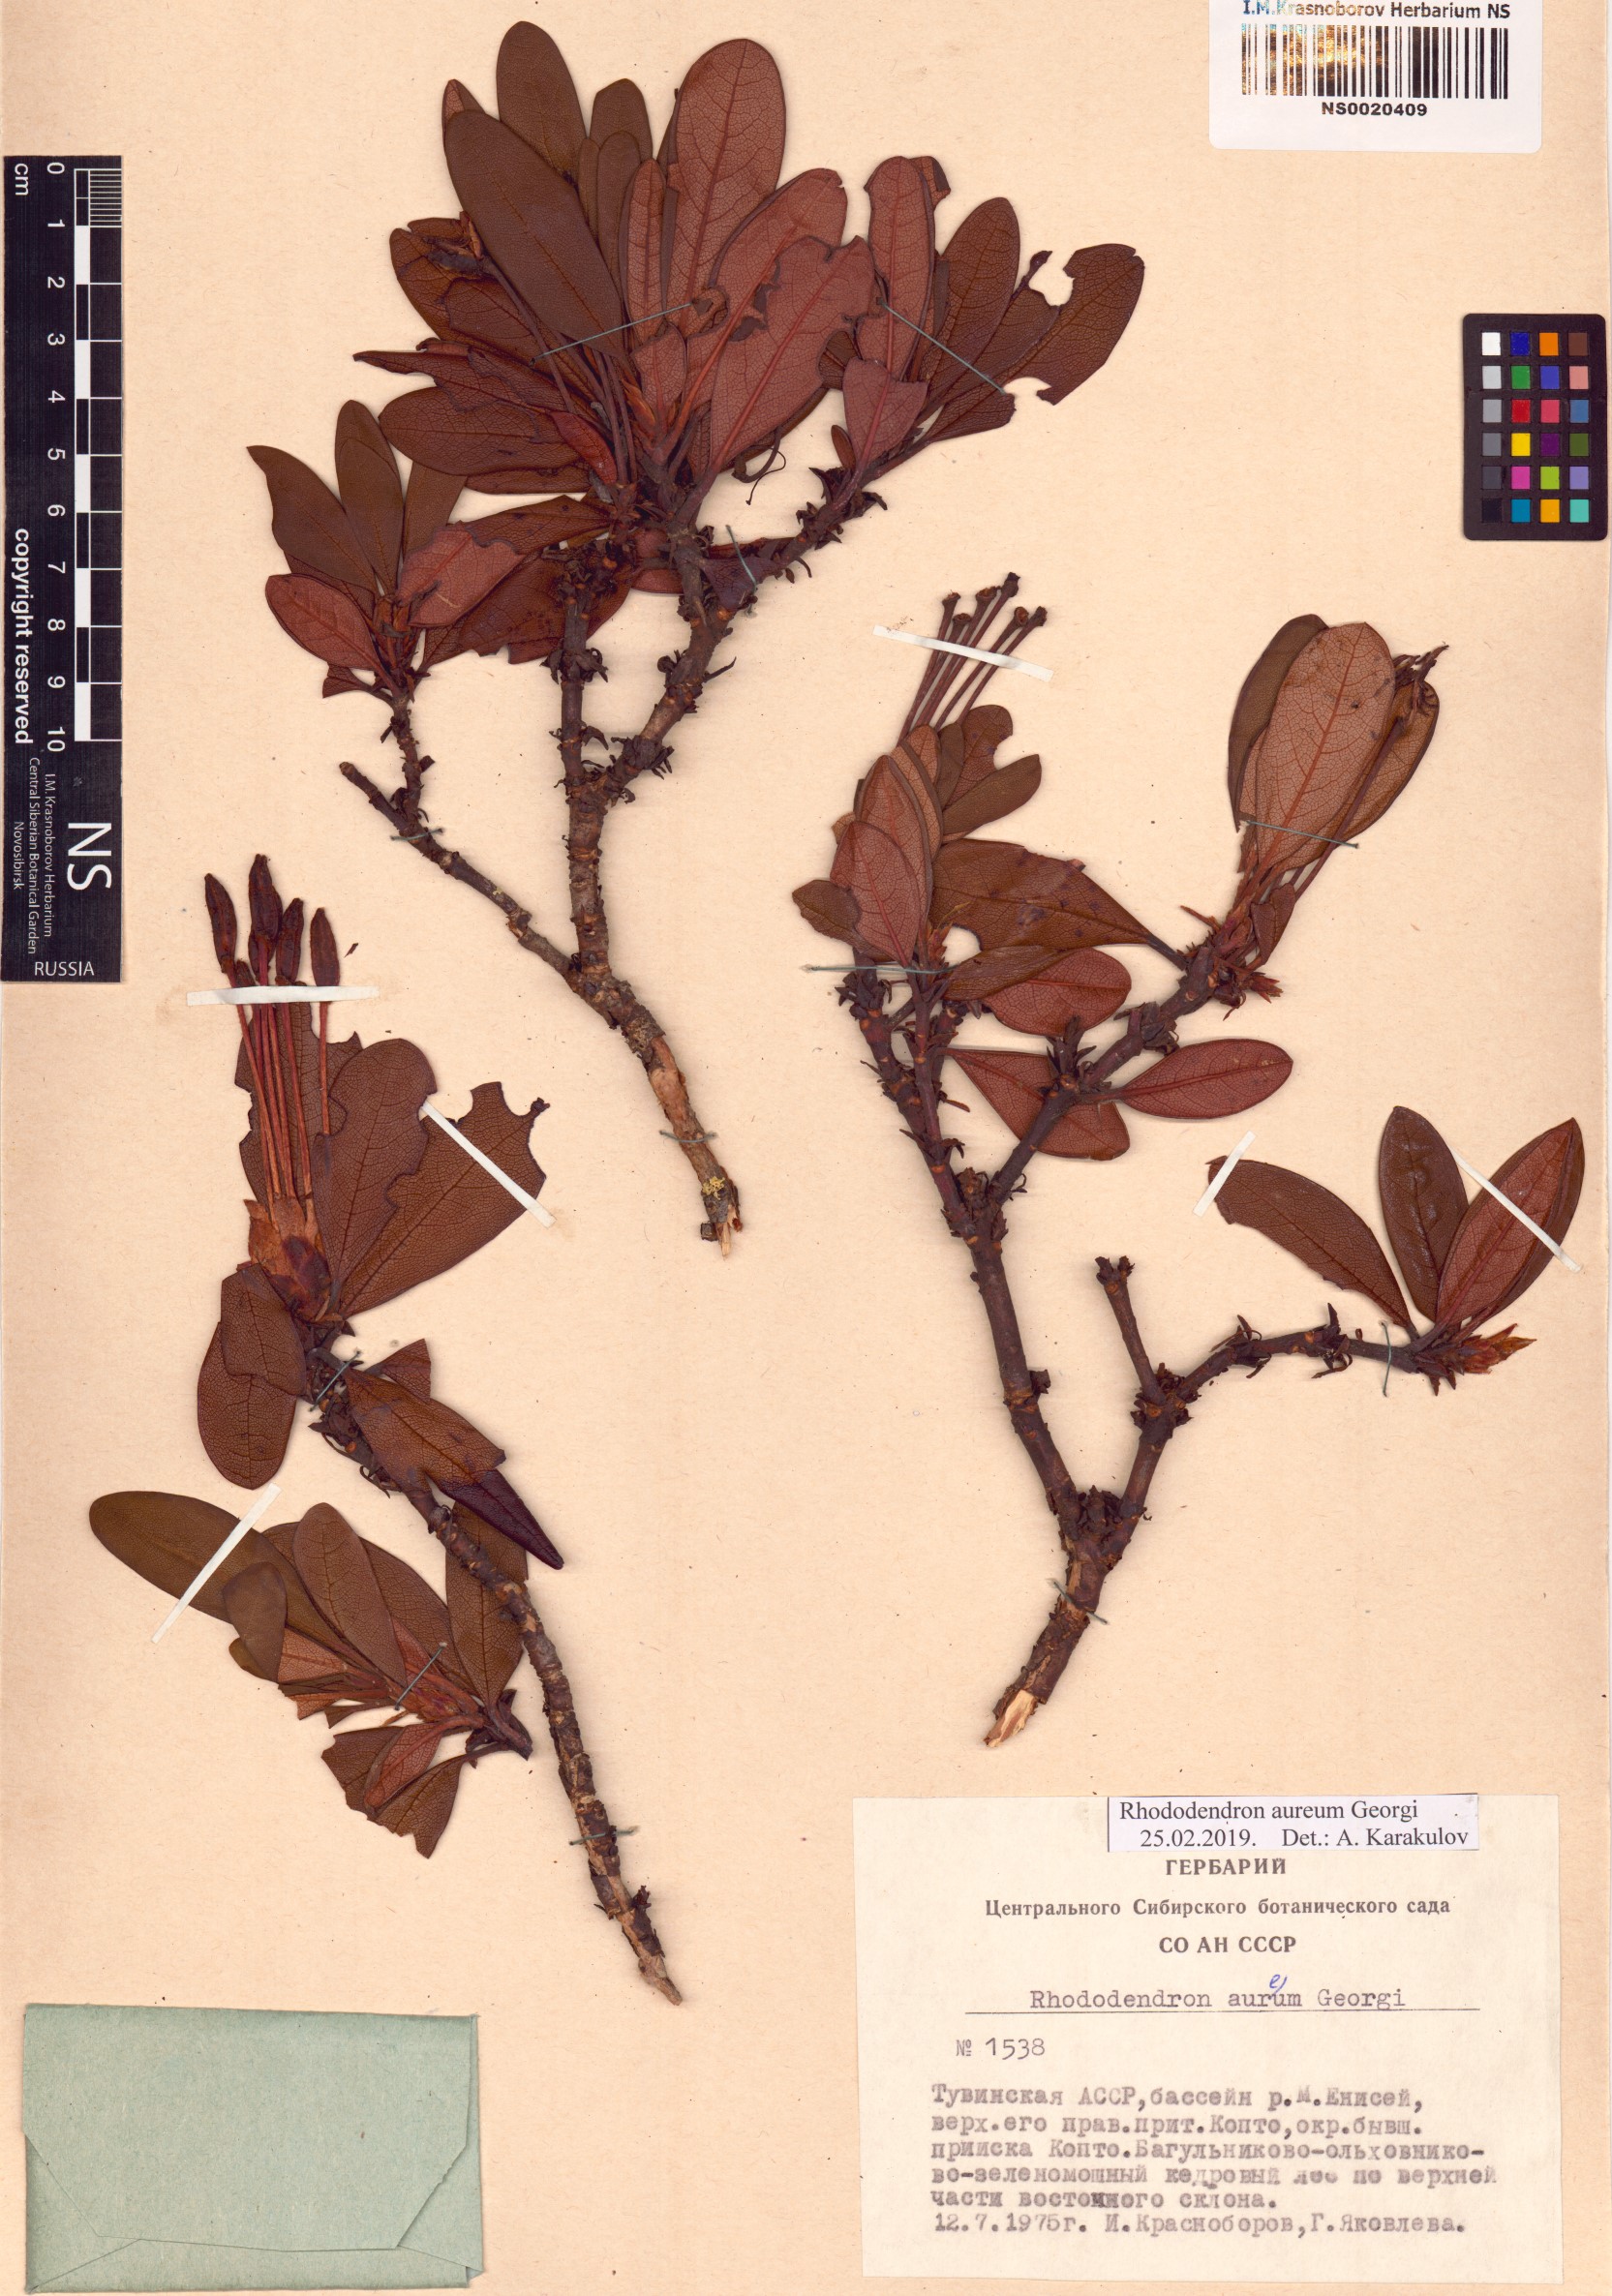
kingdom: Plantae
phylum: Tracheophyta
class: Magnoliopsida
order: Ericales
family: Ericaceae
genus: Rhododendron
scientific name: Rhododendron aureum
